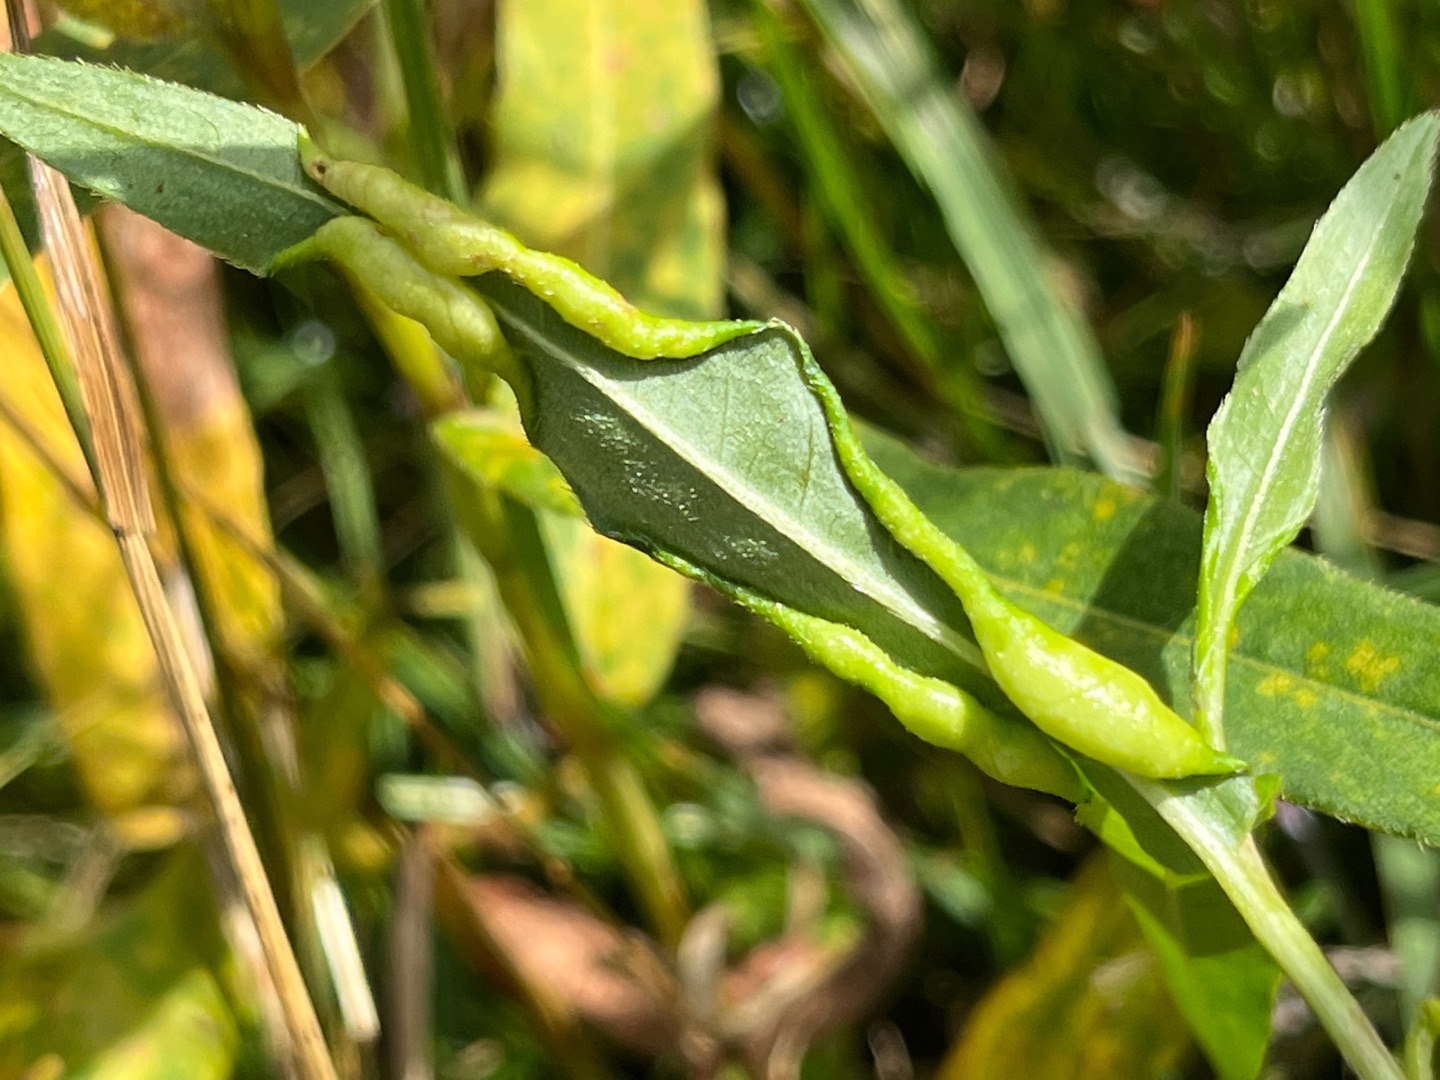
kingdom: Animalia
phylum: Arthropoda
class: Insecta
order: Diptera
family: Cecidomyiidae
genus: Wachtliella
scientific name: Wachtliella persicariae
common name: Pileurtgalmyg
